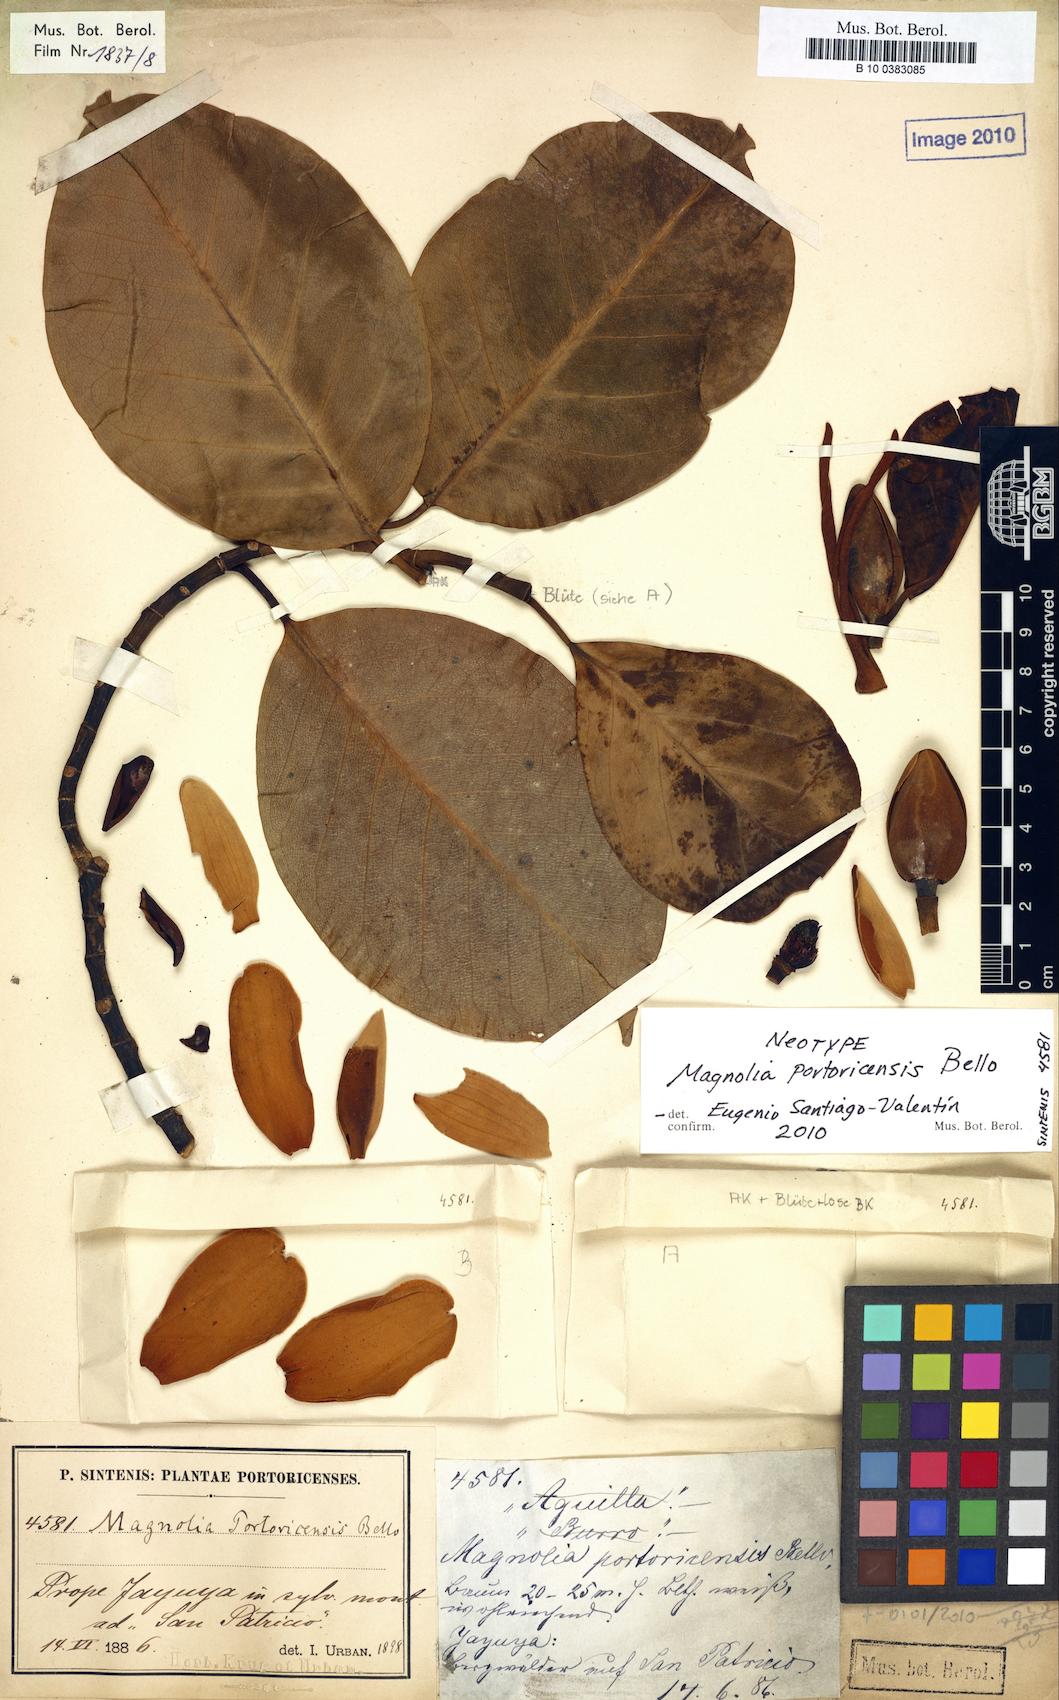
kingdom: Plantae
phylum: Tracheophyta
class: Magnoliopsida
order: Magnoliales
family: Magnoliaceae
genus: Magnolia
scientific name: Magnolia portoricensis
